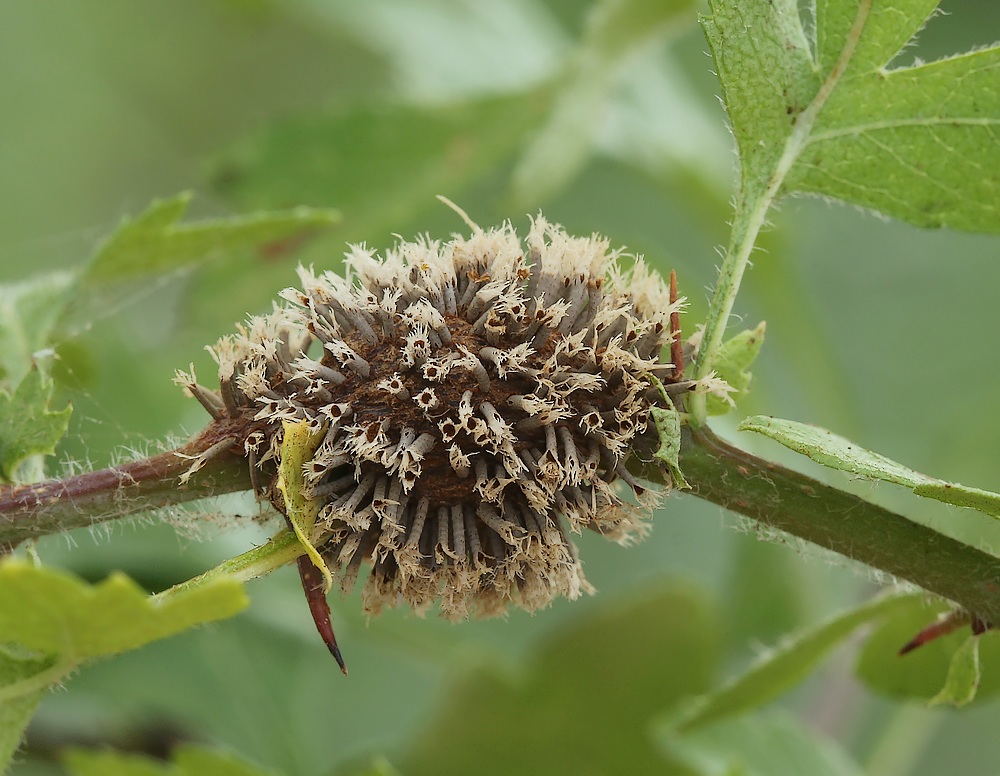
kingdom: Fungi
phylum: Basidiomycota
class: Pucciniomycetes
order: Pucciniales
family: Gymnosporangiaceae
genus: Gymnosporangium
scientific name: Gymnosporangium clavariiforme
